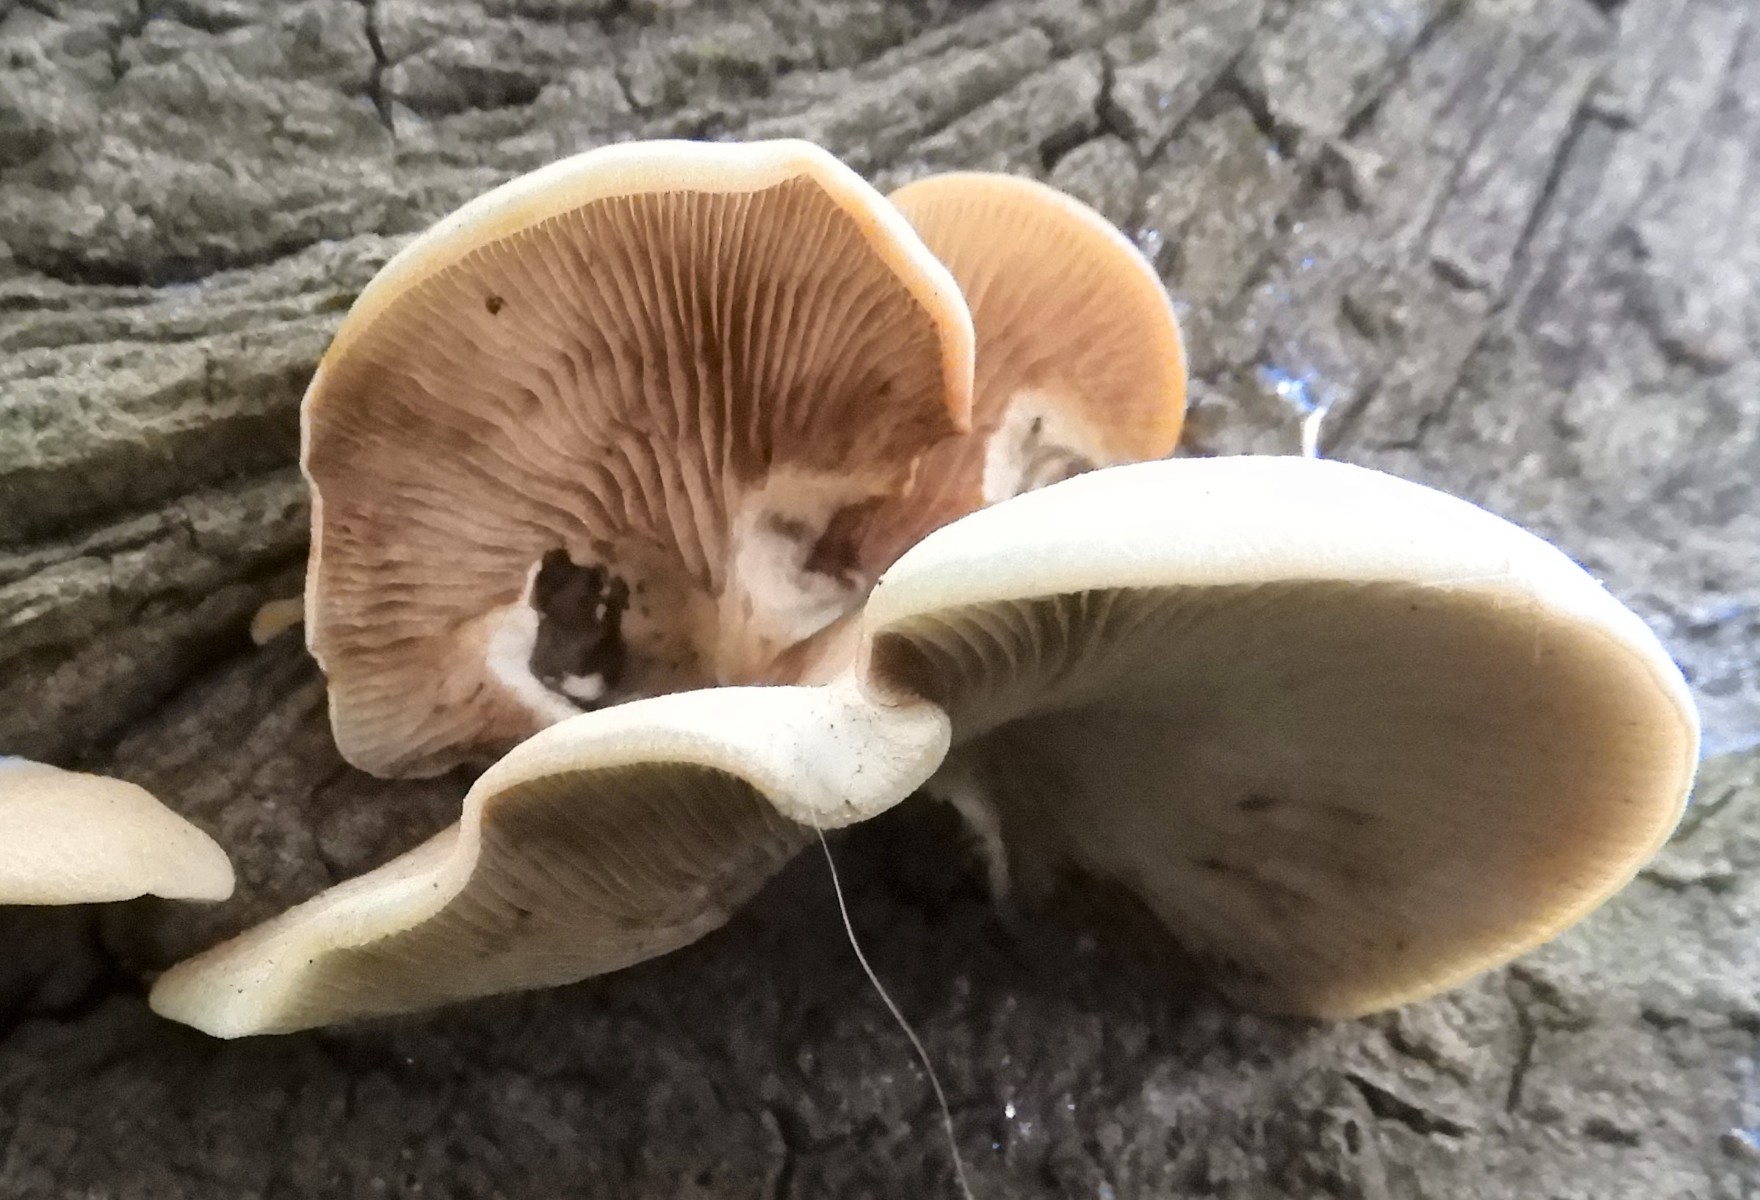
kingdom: Fungi
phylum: Basidiomycota
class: Agaricomycetes
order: Agaricales
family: Crepidotaceae
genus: Crepidotus
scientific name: Crepidotus mollis
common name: blød muslingesvamp
